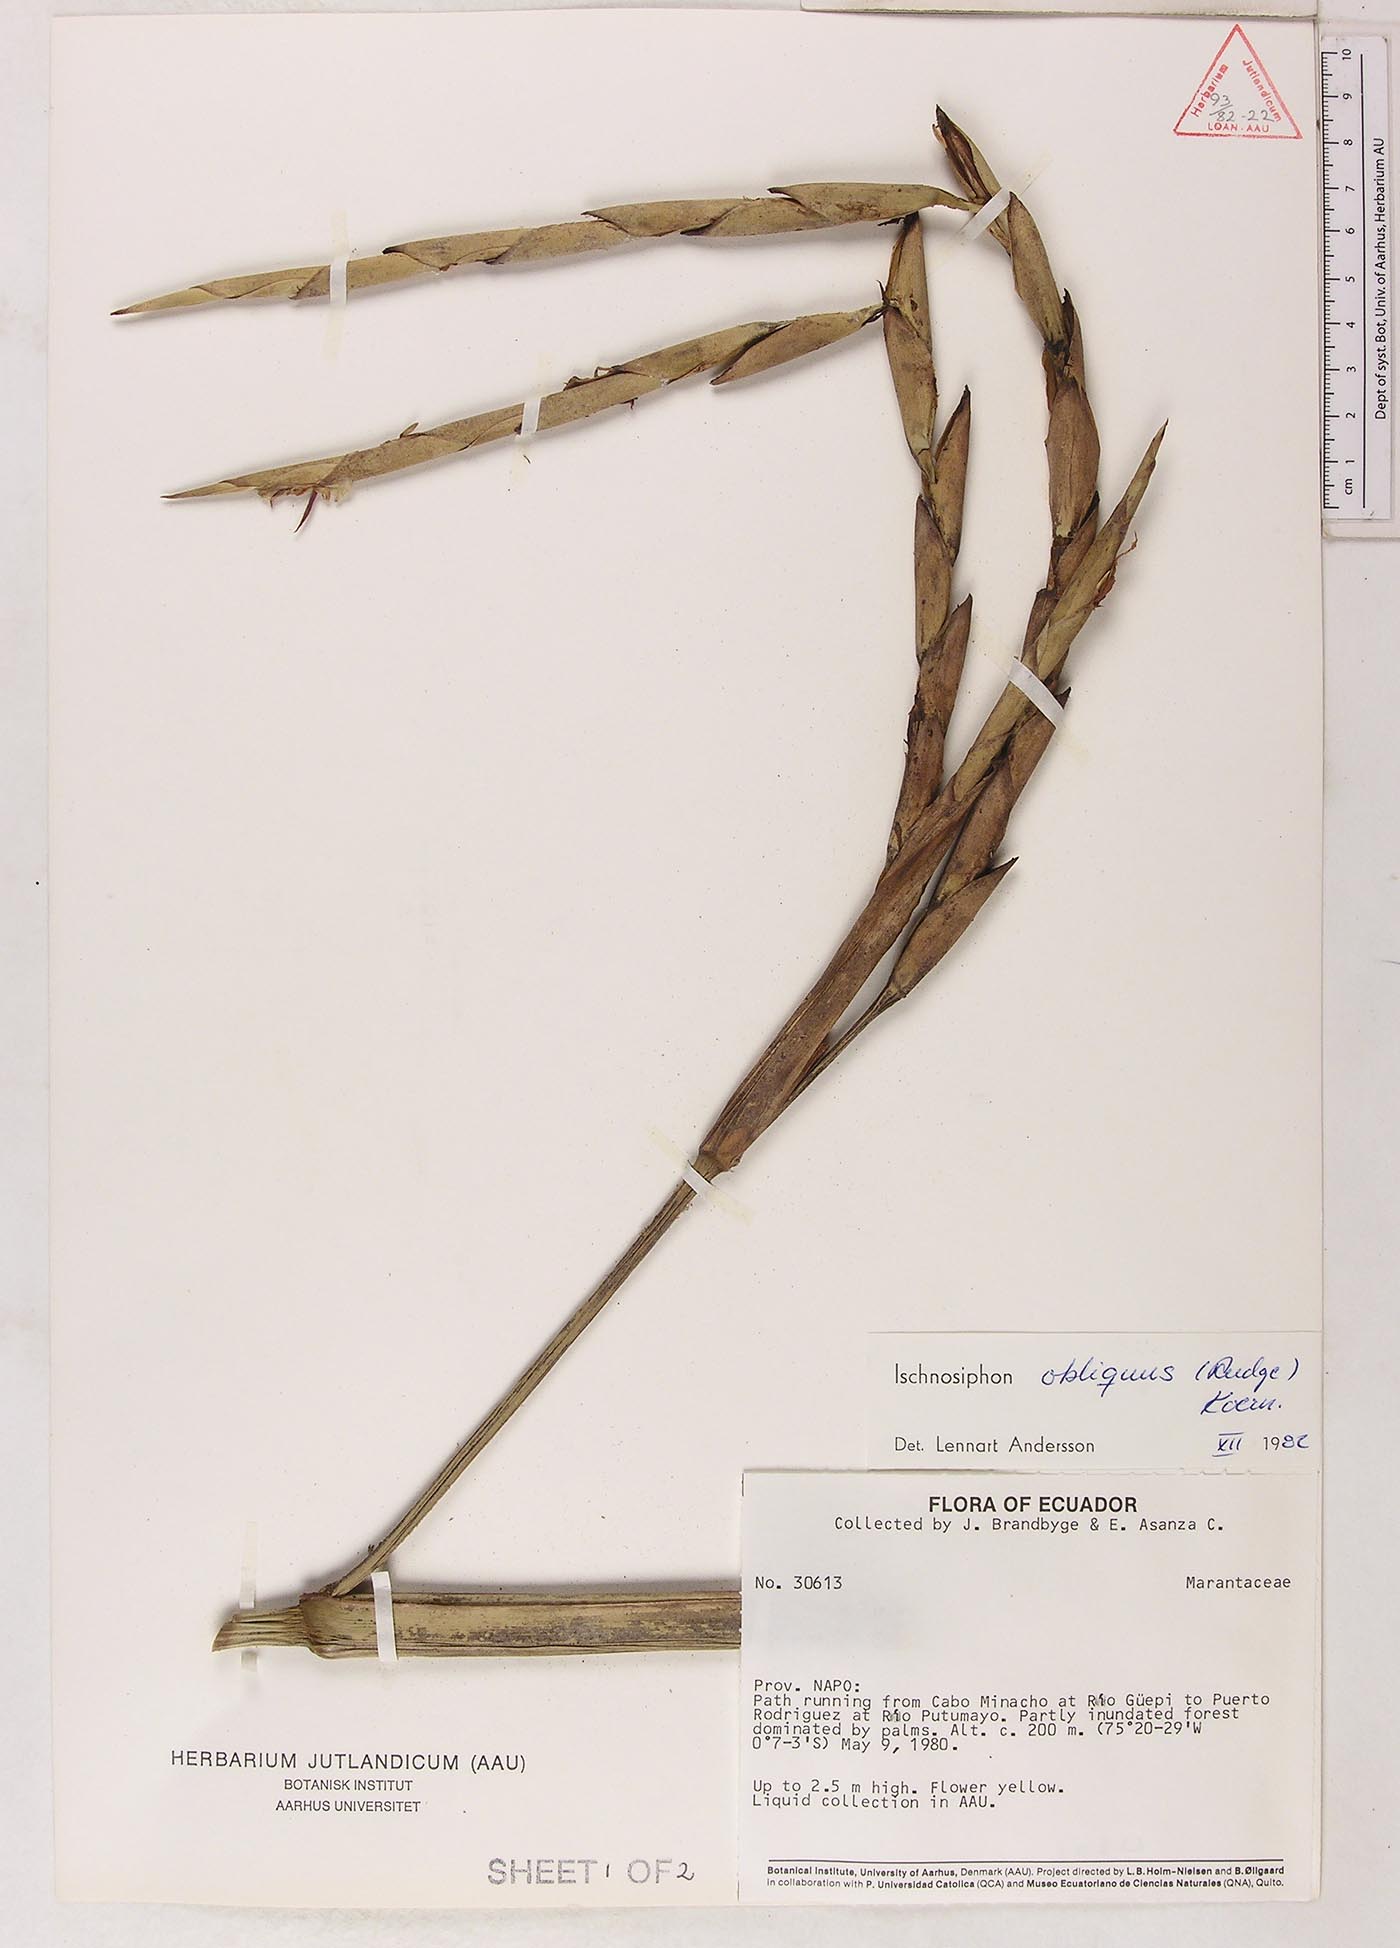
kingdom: Plantae
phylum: Tracheophyta
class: Liliopsida
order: Zingiberales
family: Marantaceae
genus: Ischnosiphon
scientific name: Ischnosiphon obliquus
